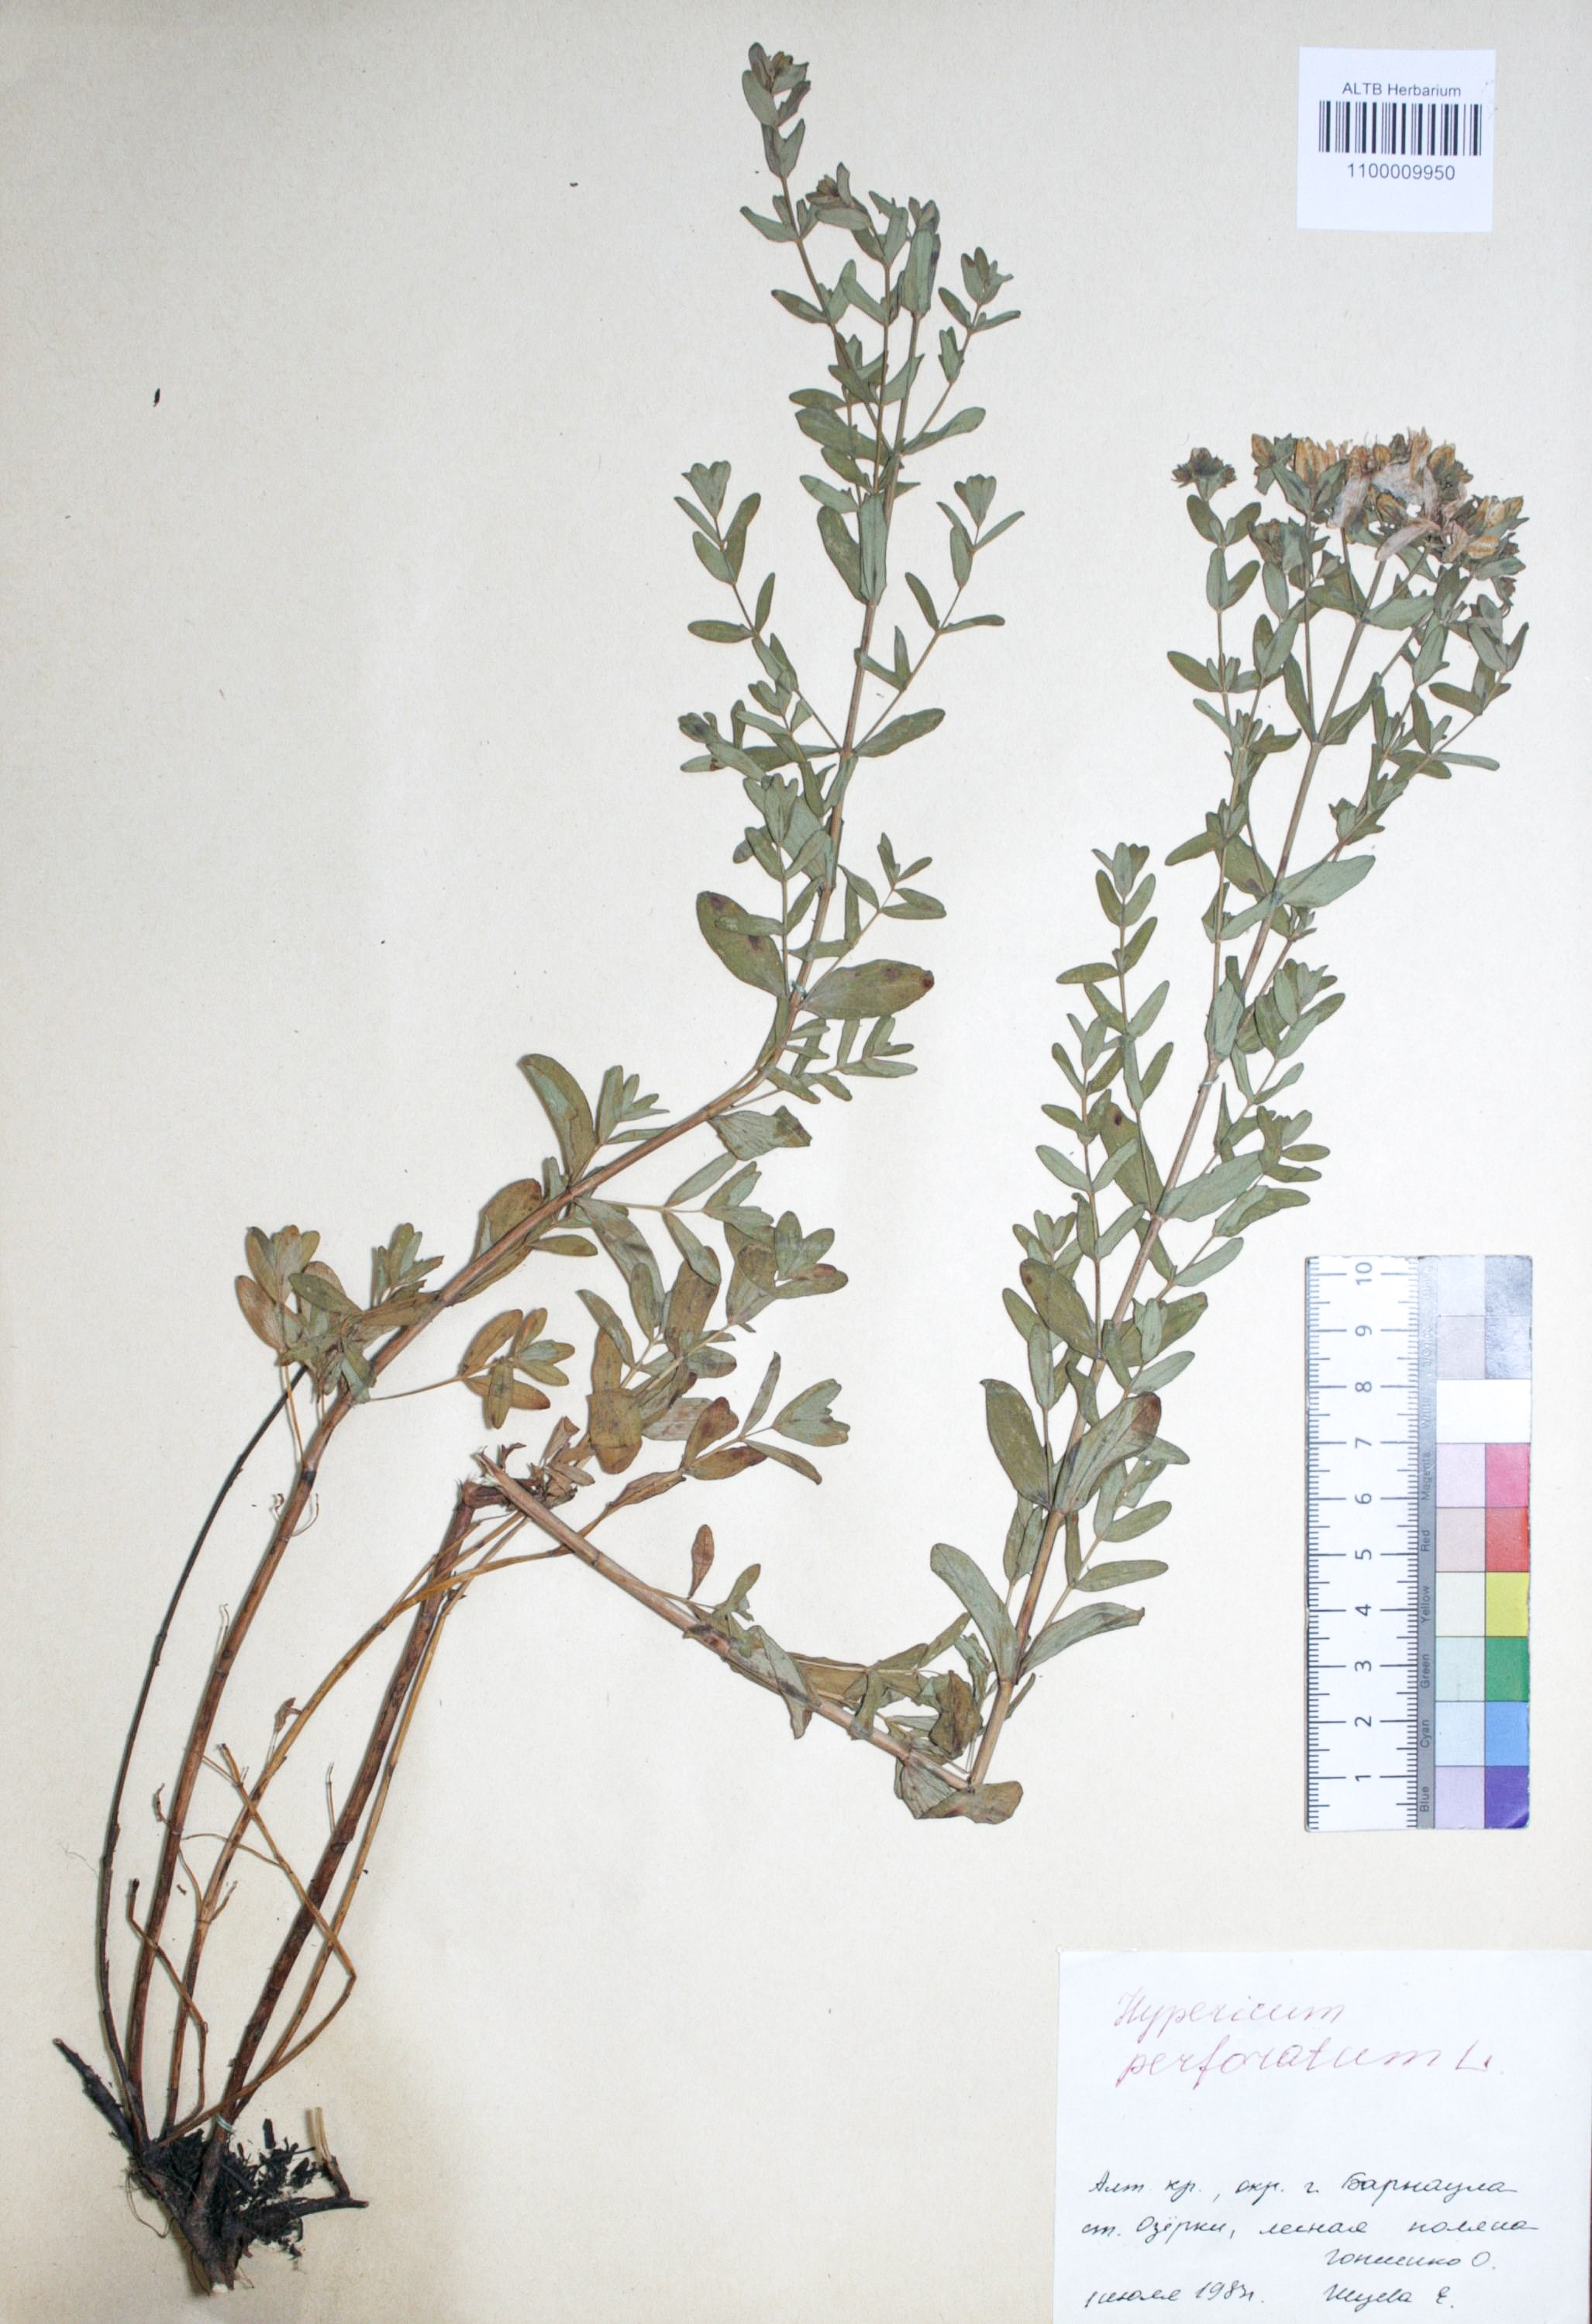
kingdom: Plantae
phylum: Tracheophyta
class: Magnoliopsida
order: Malpighiales
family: Hypericaceae
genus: Hypericum
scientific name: Hypericum perforatum
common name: Common st. johnswort
